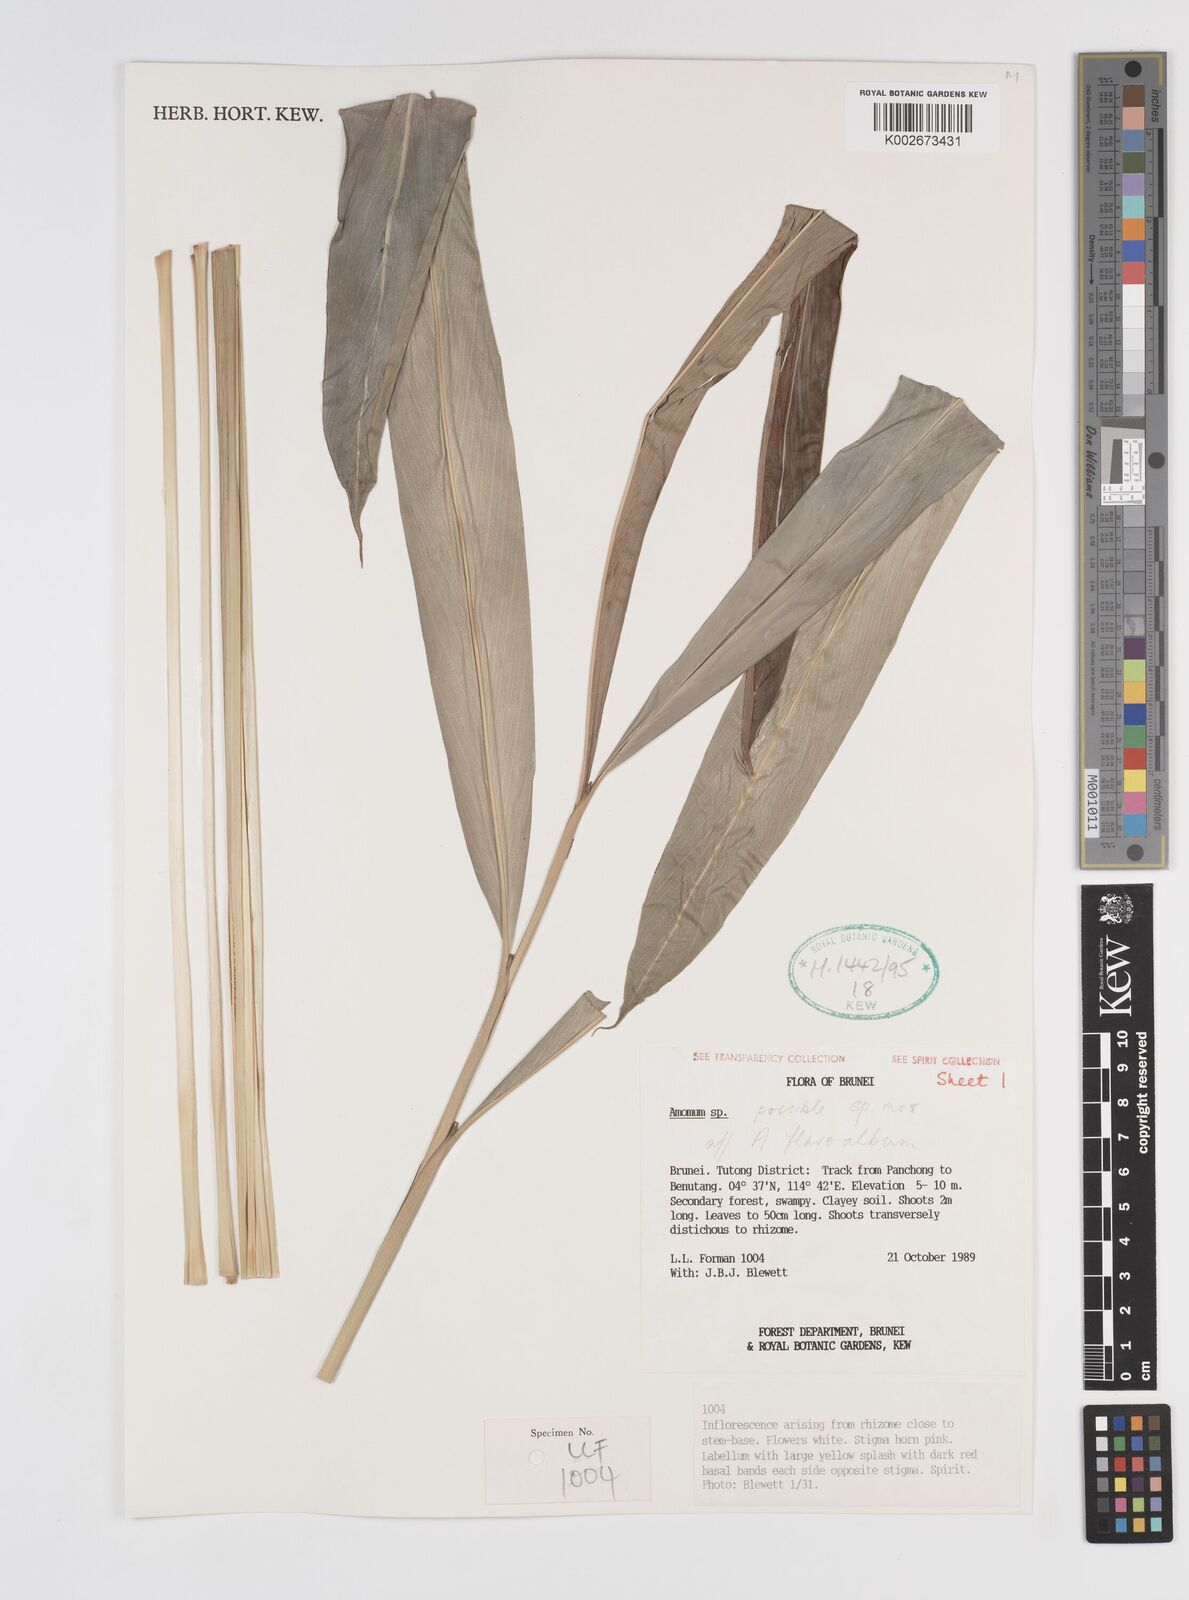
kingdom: Plantae
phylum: Tracheophyta
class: Liliopsida
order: Zingiberales
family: Zingiberaceae
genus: Sundamomum
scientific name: Sundamomum flavoalbum
